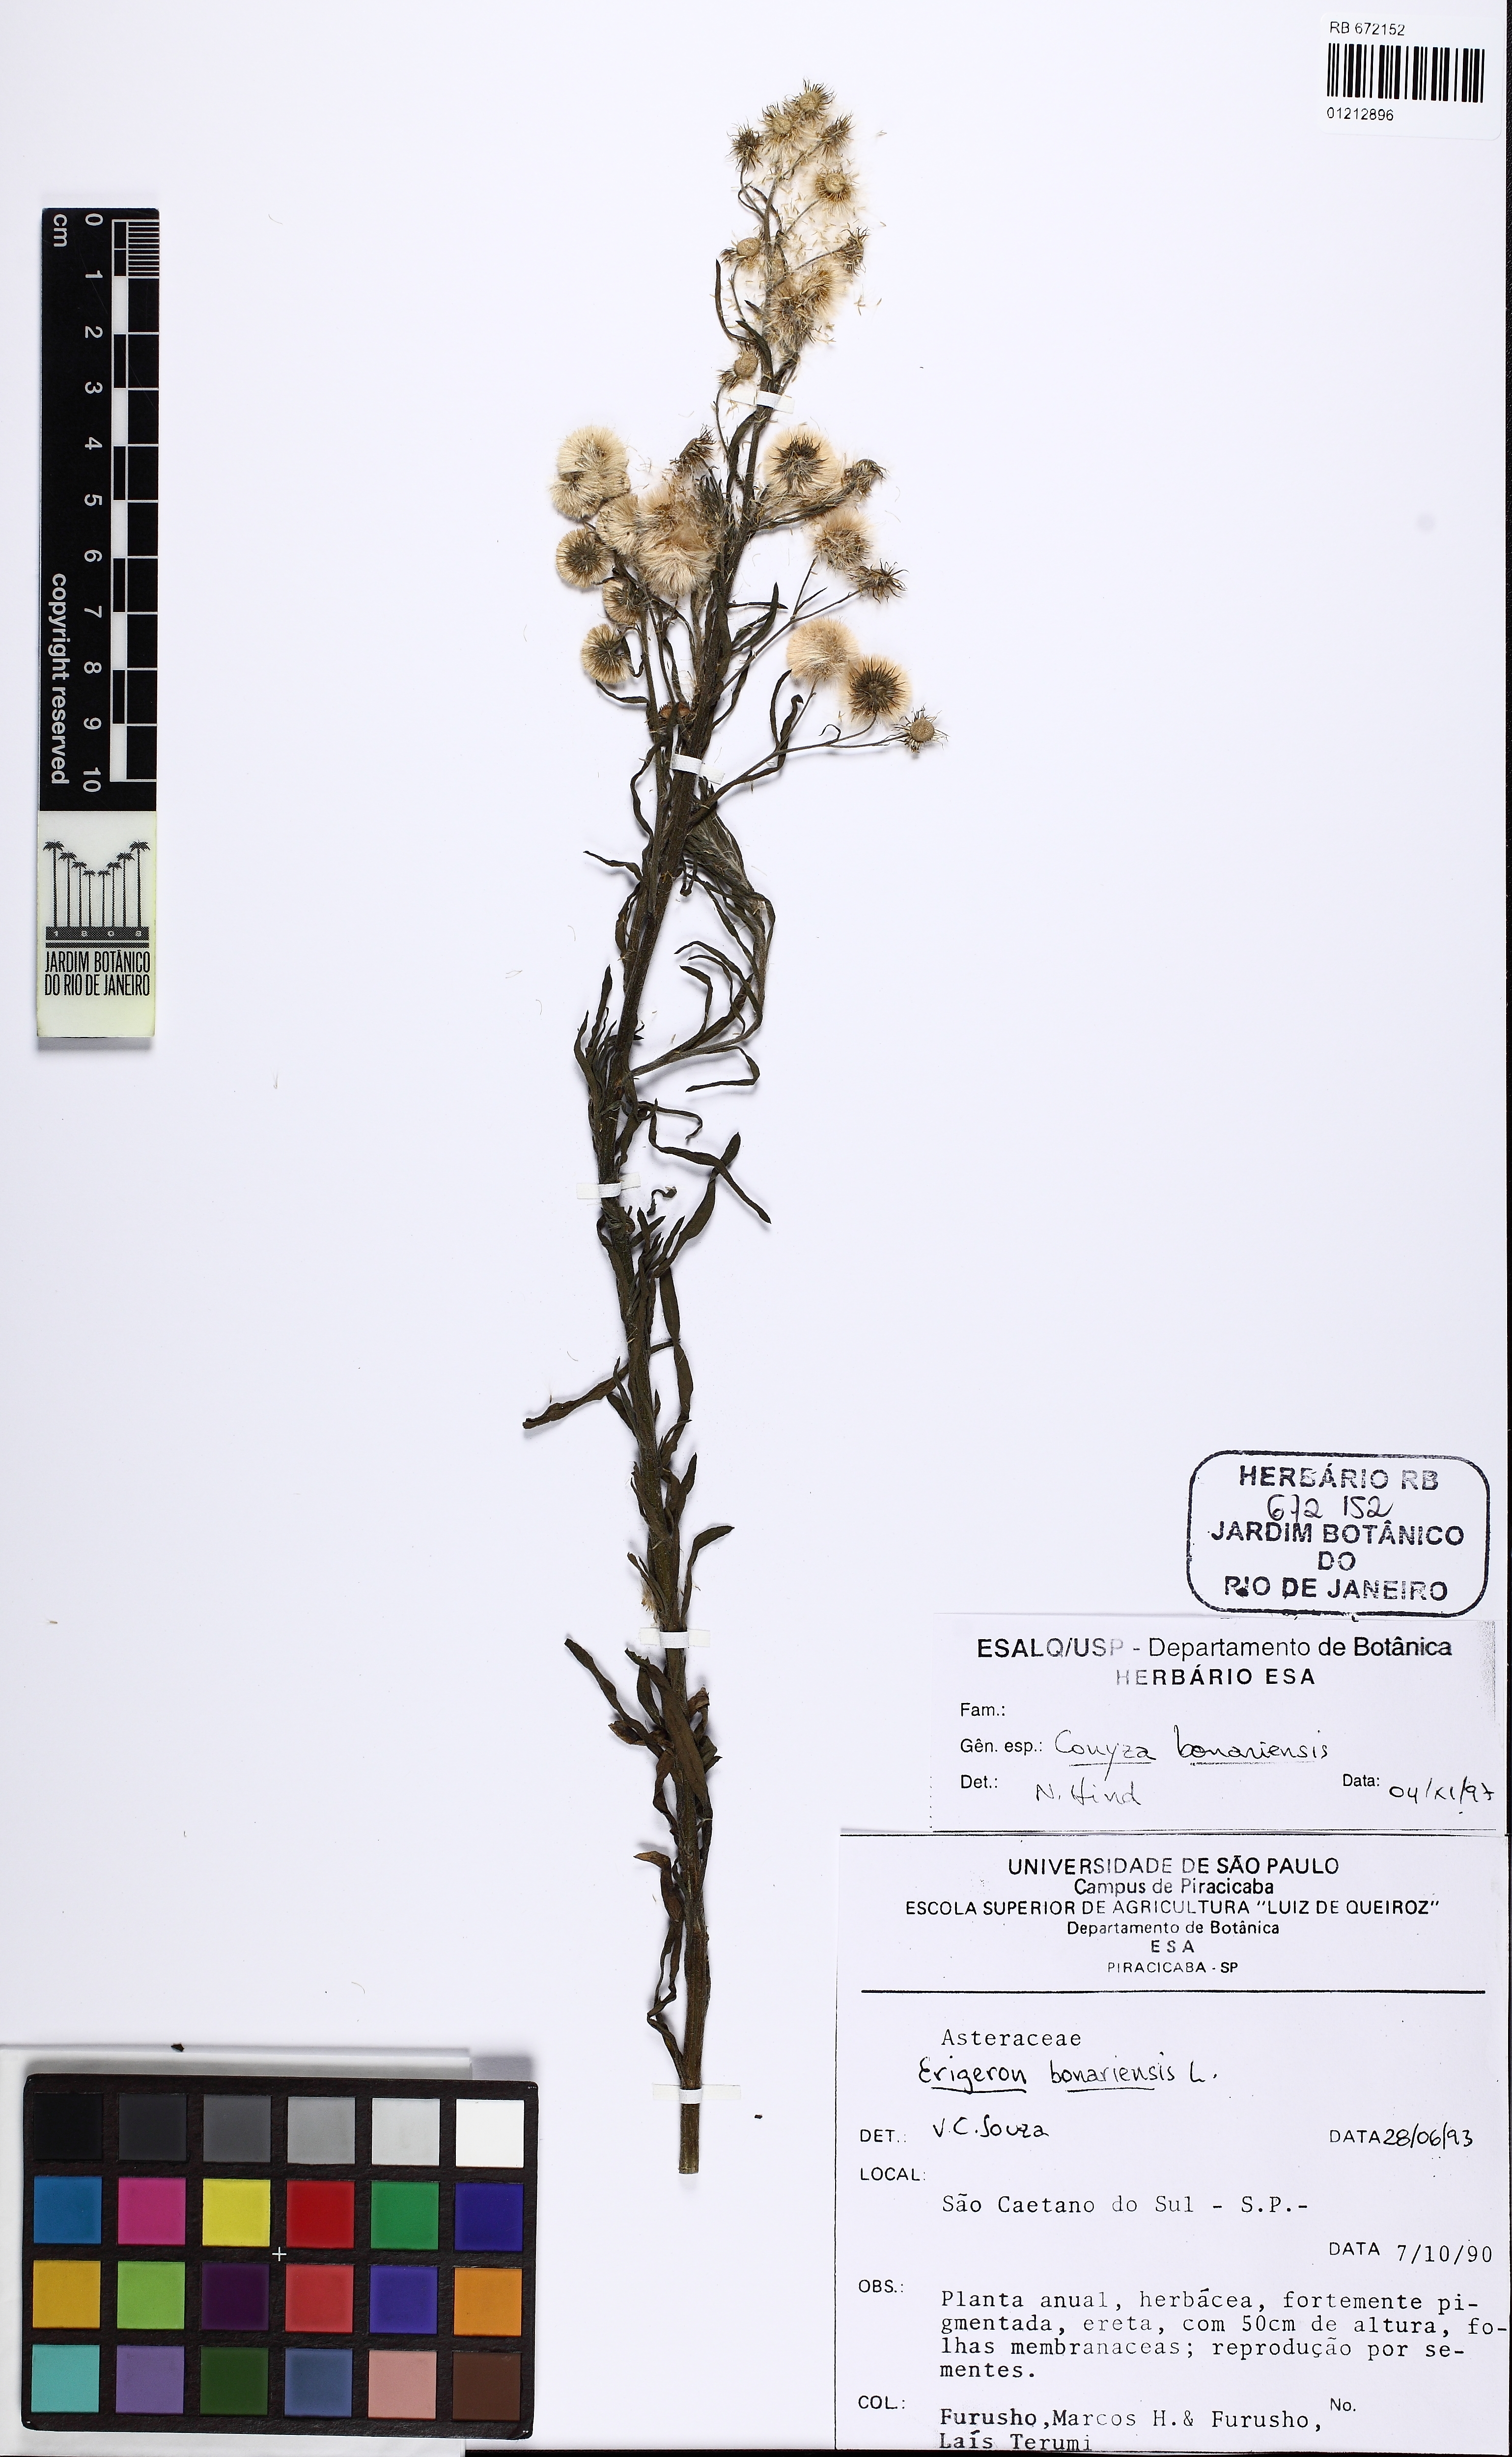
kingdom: Plantae
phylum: Tracheophyta
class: Magnoliopsida
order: Asterales
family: Asteraceae
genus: Erigeron
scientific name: Erigeron bonariensis
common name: Argentine fleabane
